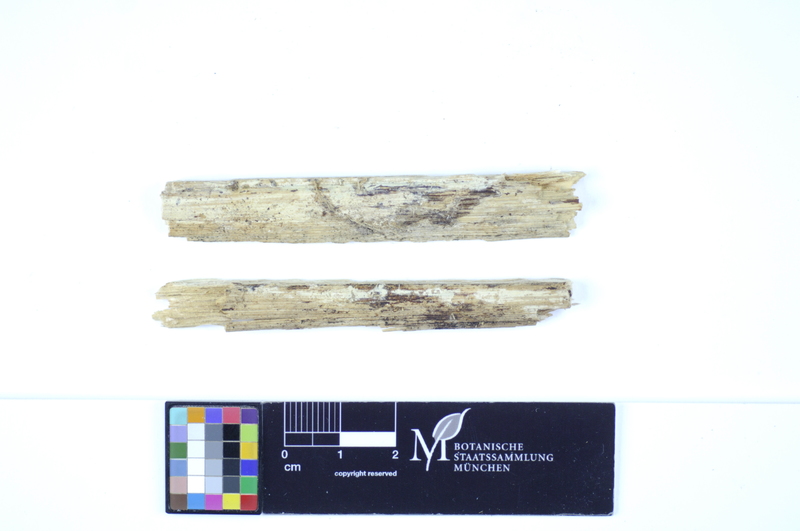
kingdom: Fungi
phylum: Basidiomycota
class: Agaricomycetes
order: Polyporales
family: Hyphodermataceae
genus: Hyphoderma
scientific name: Hyphoderma roseocremeum
